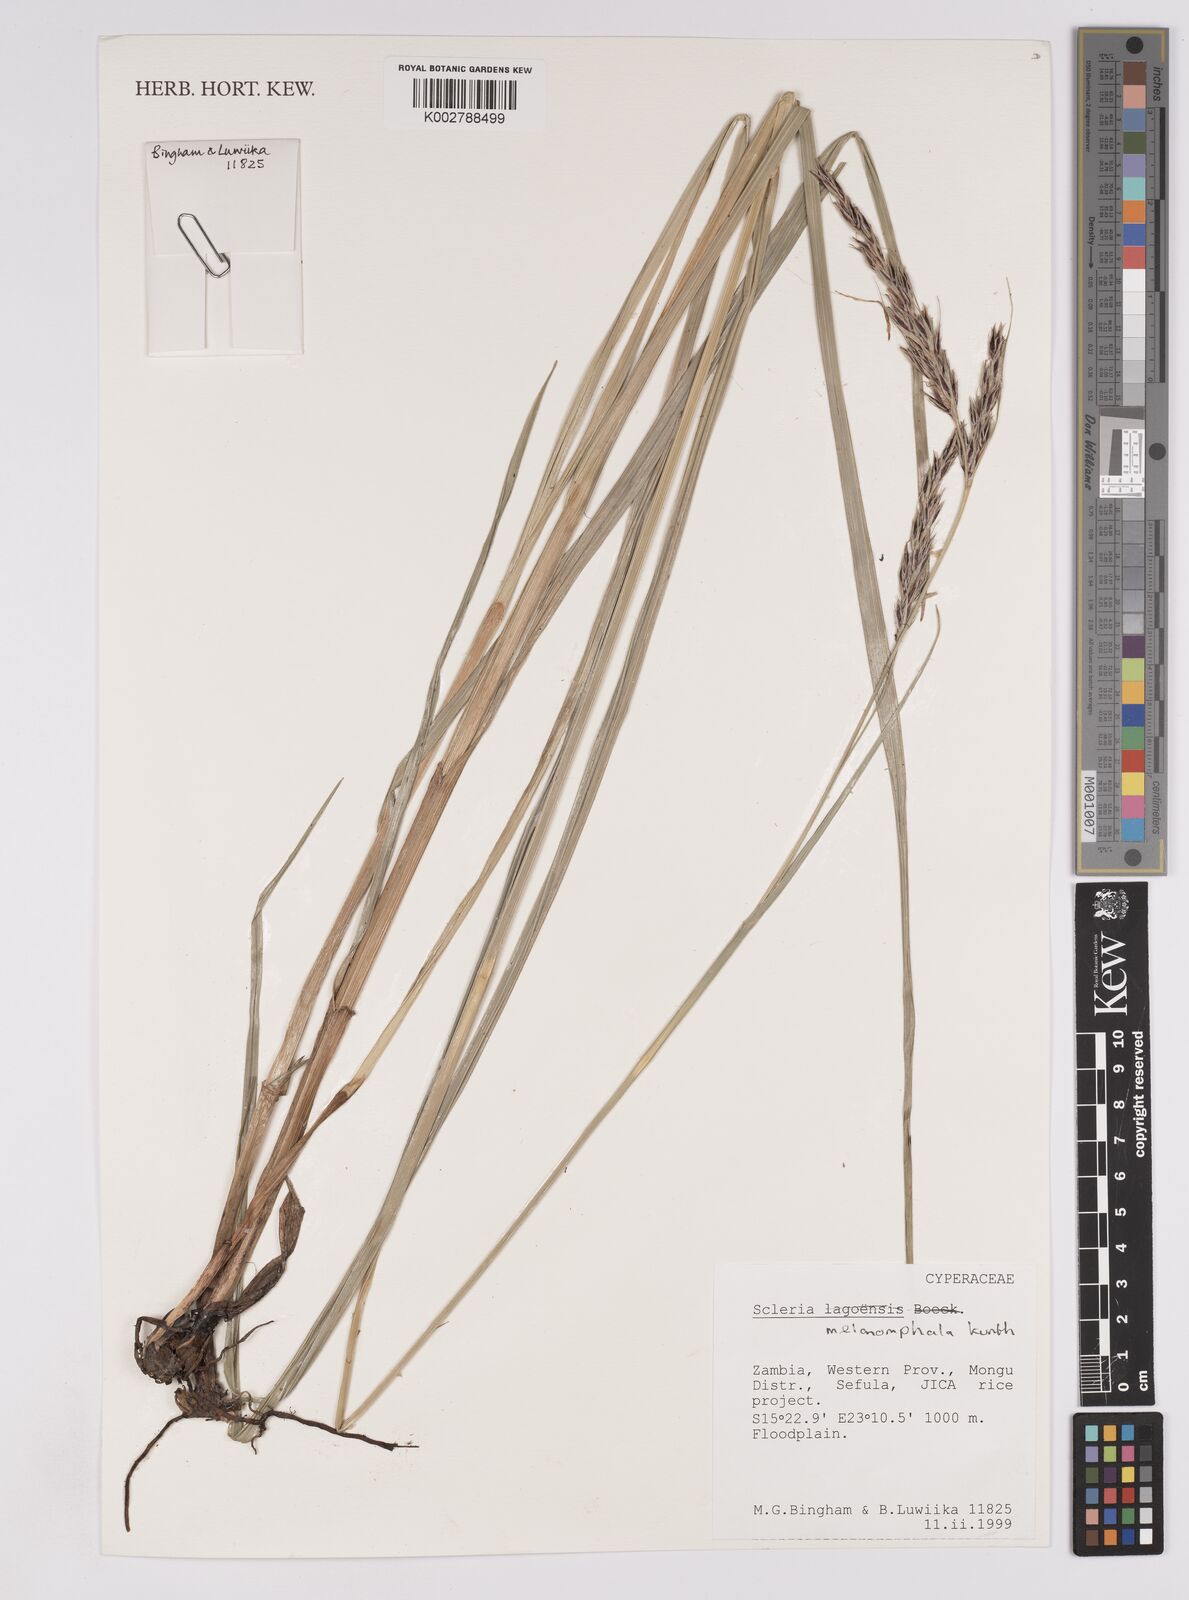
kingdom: Plantae
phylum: Tracheophyta
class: Liliopsida
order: Poales
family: Cyperaceae
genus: Scleria
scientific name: Scleria melanomphala
